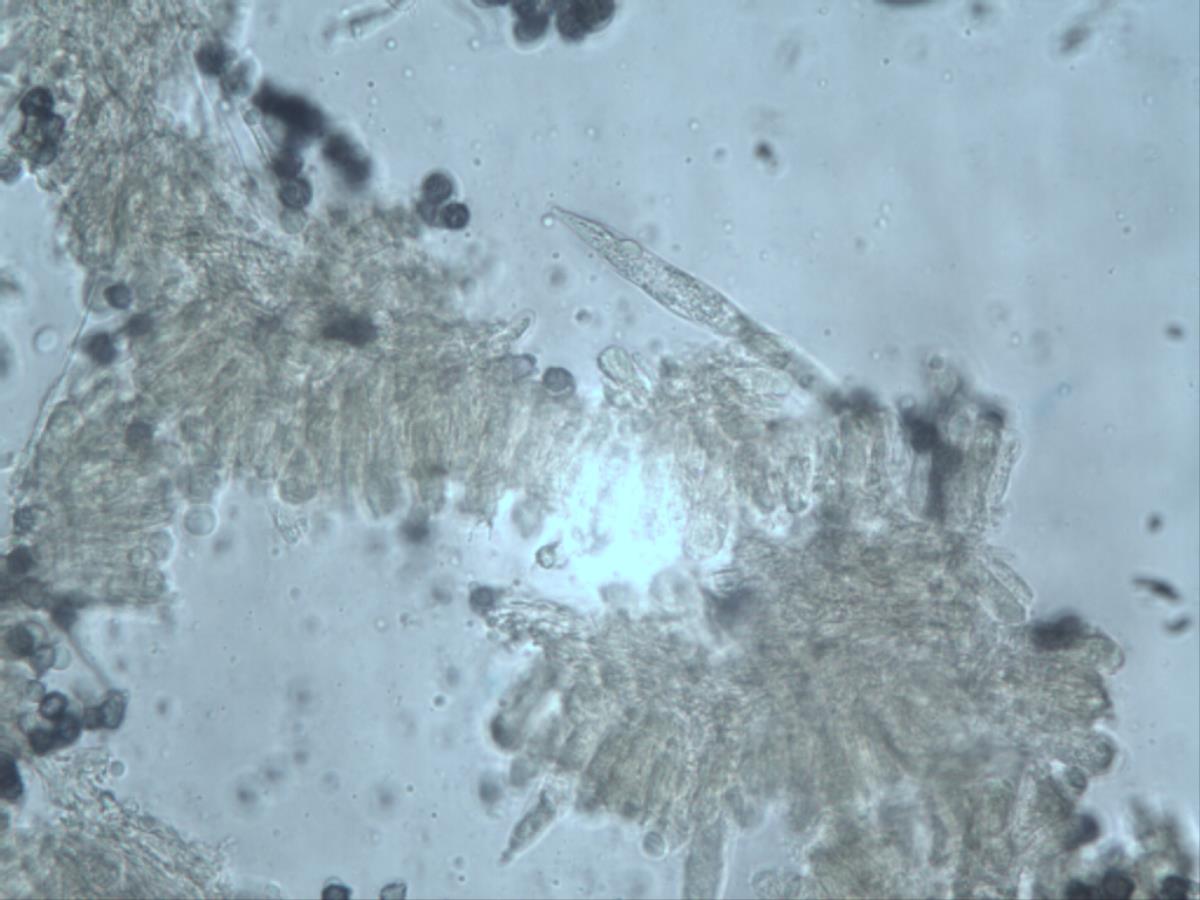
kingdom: Fungi
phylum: Basidiomycota
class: Agaricomycetes
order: Hymenochaetales
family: Schizoporaceae
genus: Xylodon
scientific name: Xylodon raduloides
